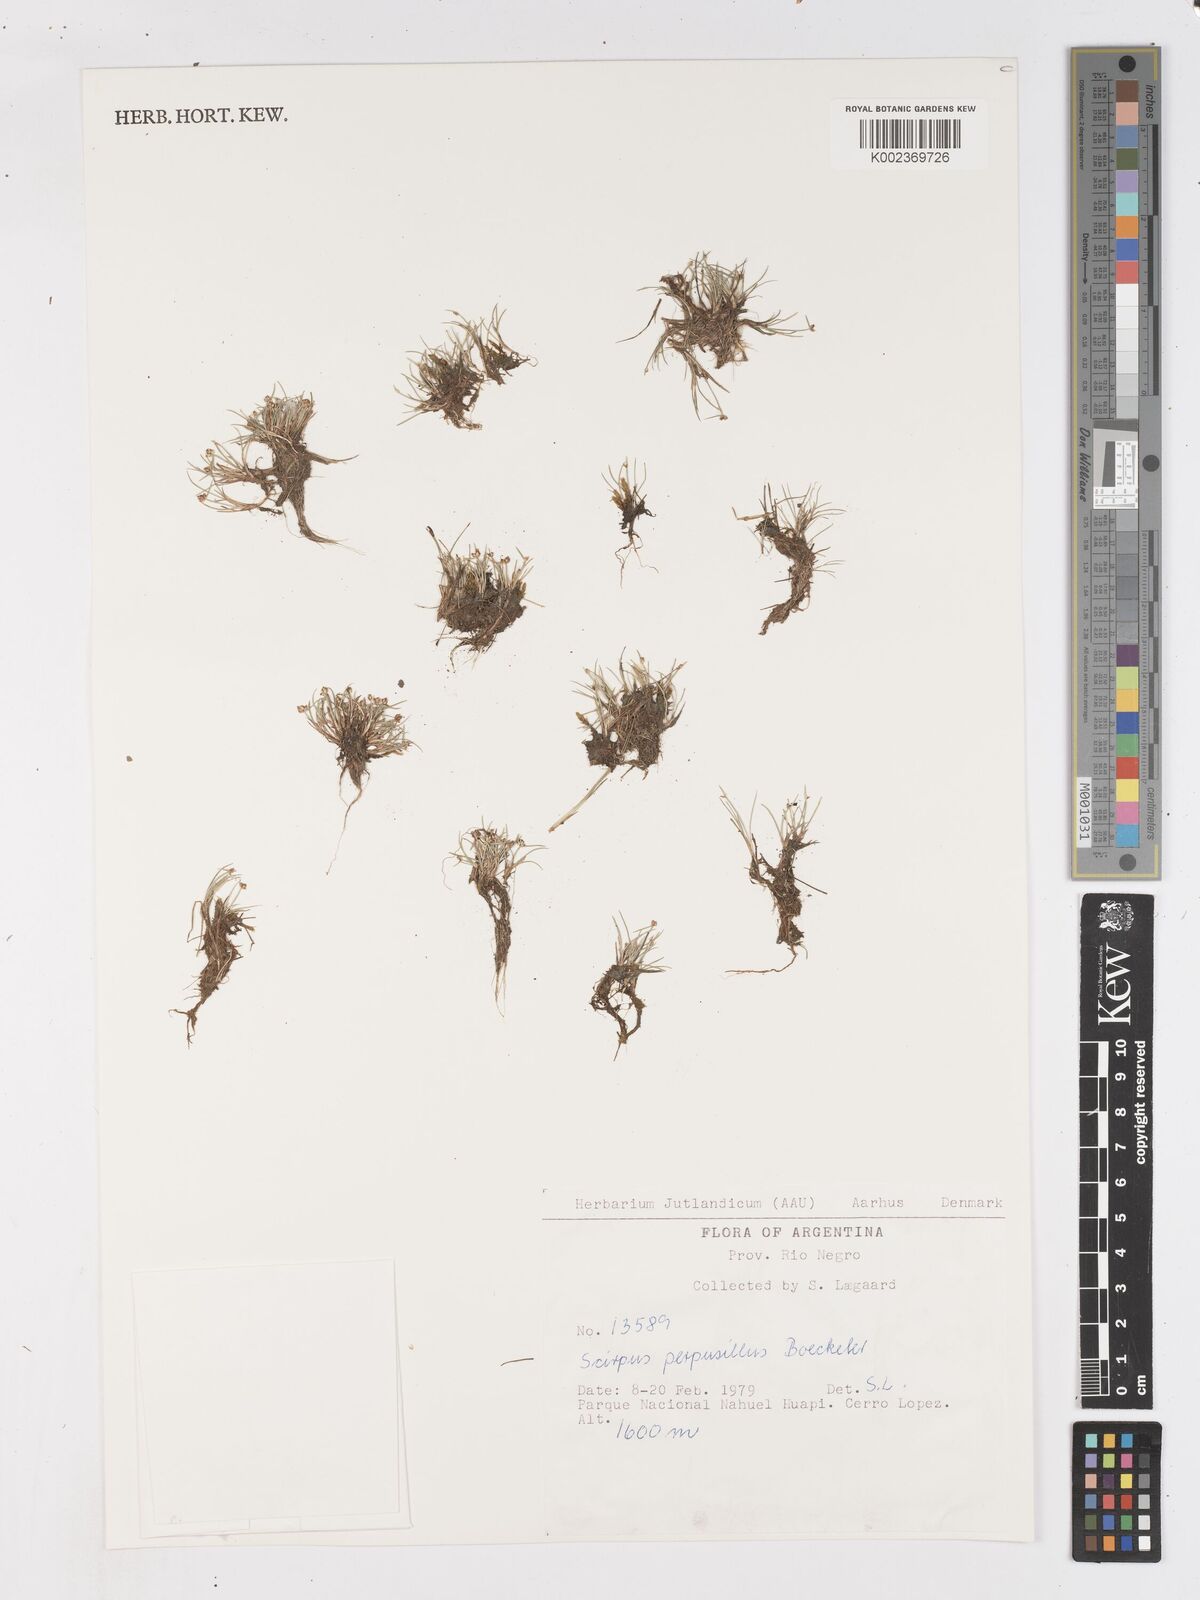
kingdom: Plantae
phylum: Tracheophyta
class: Liliopsida
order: Poales
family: Cyperaceae
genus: Isolepis
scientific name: Isolepis aucklandica
